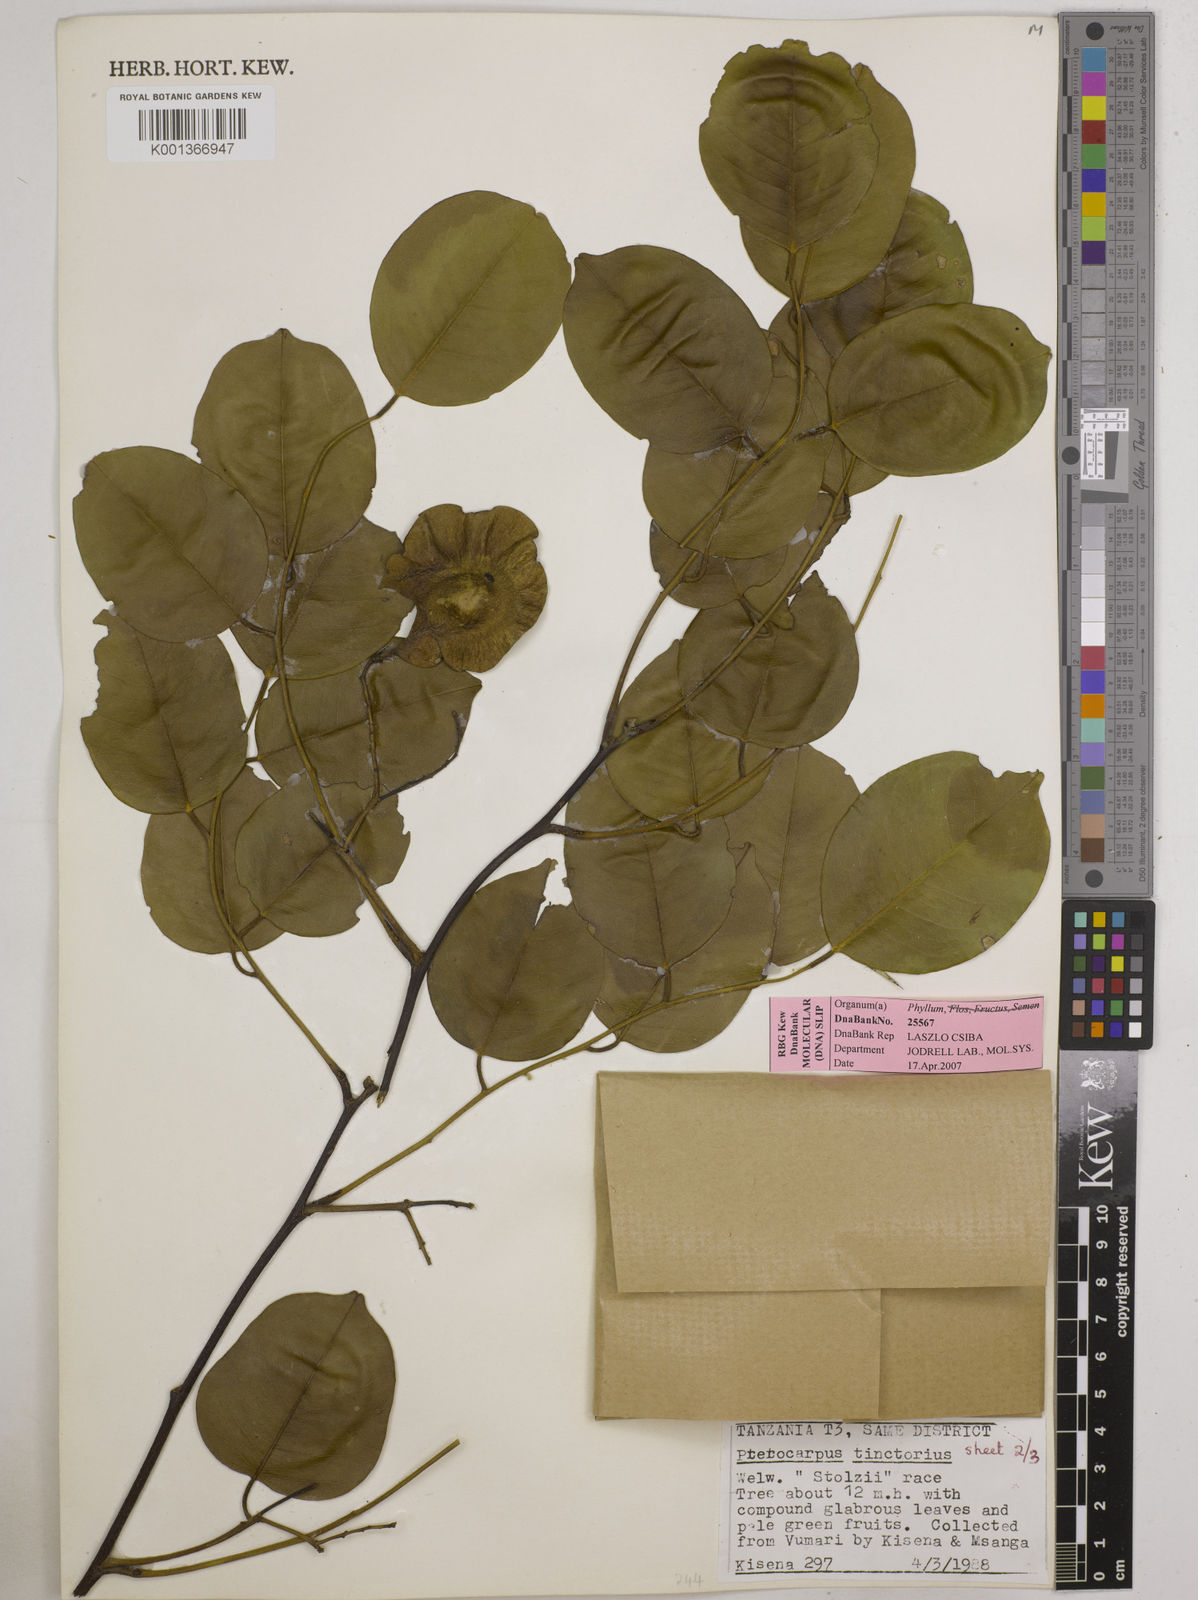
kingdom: Plantae
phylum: Tracheophyta
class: Magnoliopsida
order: Fabales
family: Fabaceae
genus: Pterocarpus
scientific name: Pterocarpus tinctorius
